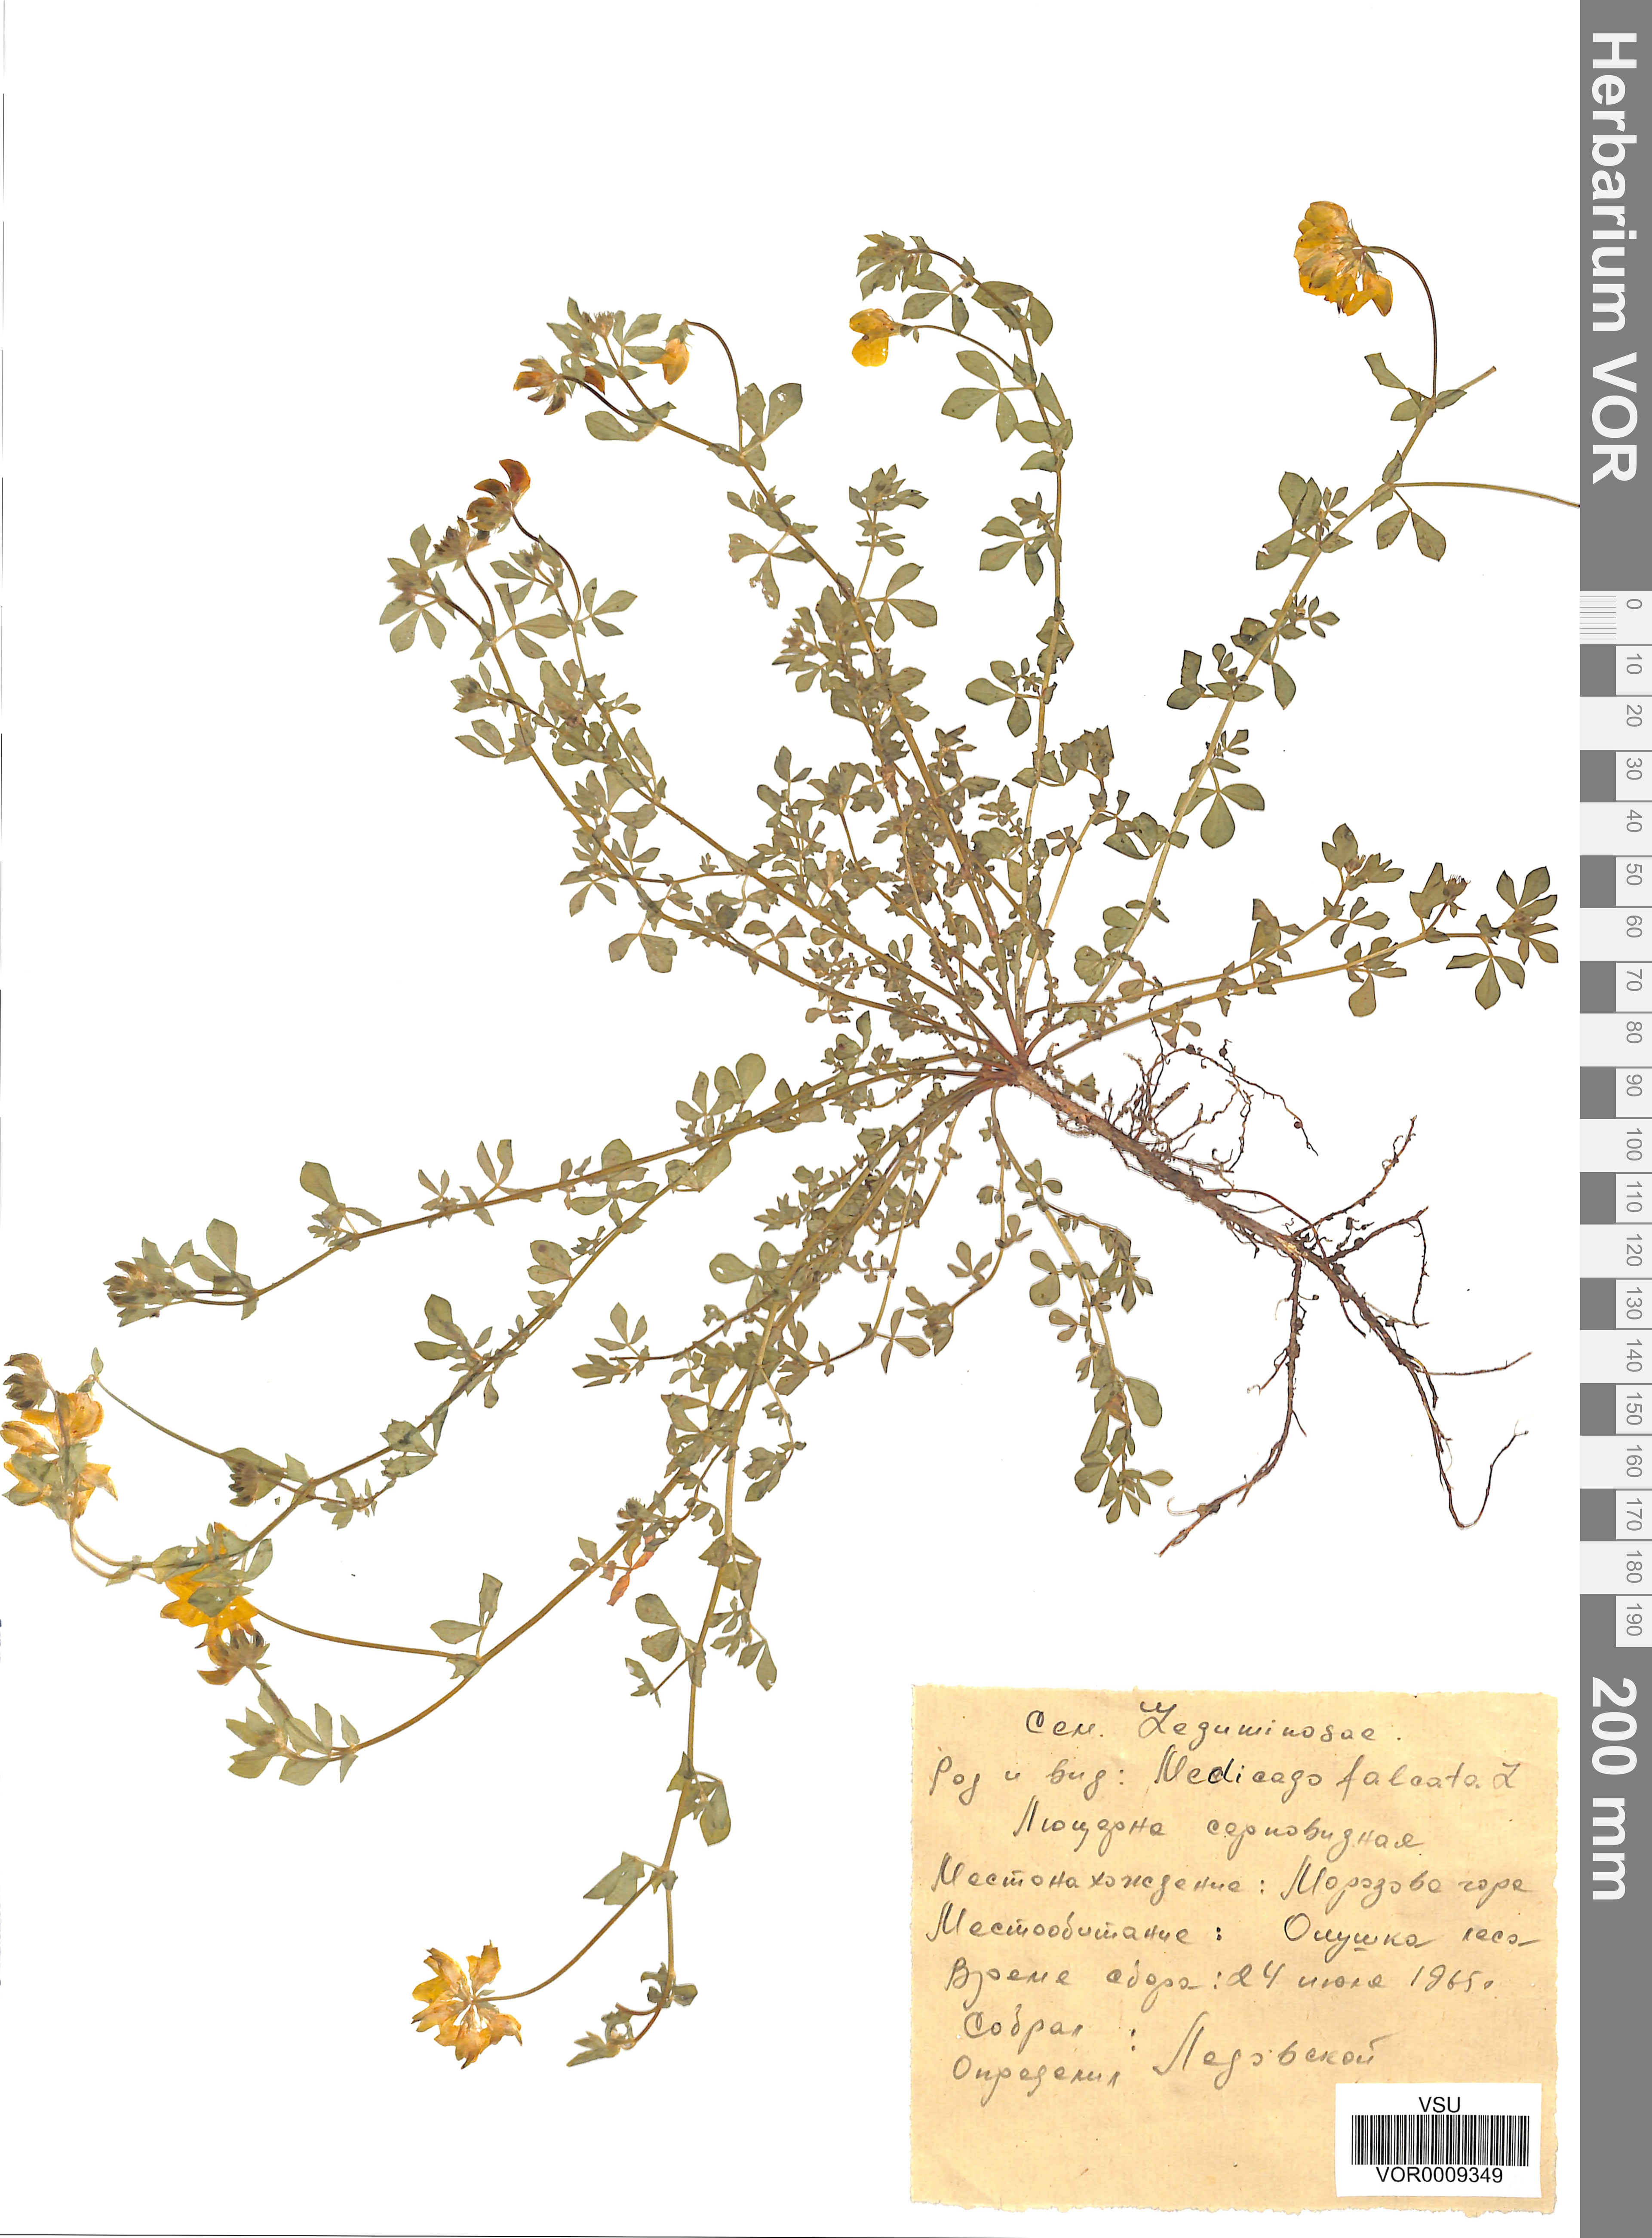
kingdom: Plantae
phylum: Tracheophyta
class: Magnoliopsida
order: Fabales
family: Fabaceae
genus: Medicago
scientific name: Medicago falcata
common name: Sickle medick
